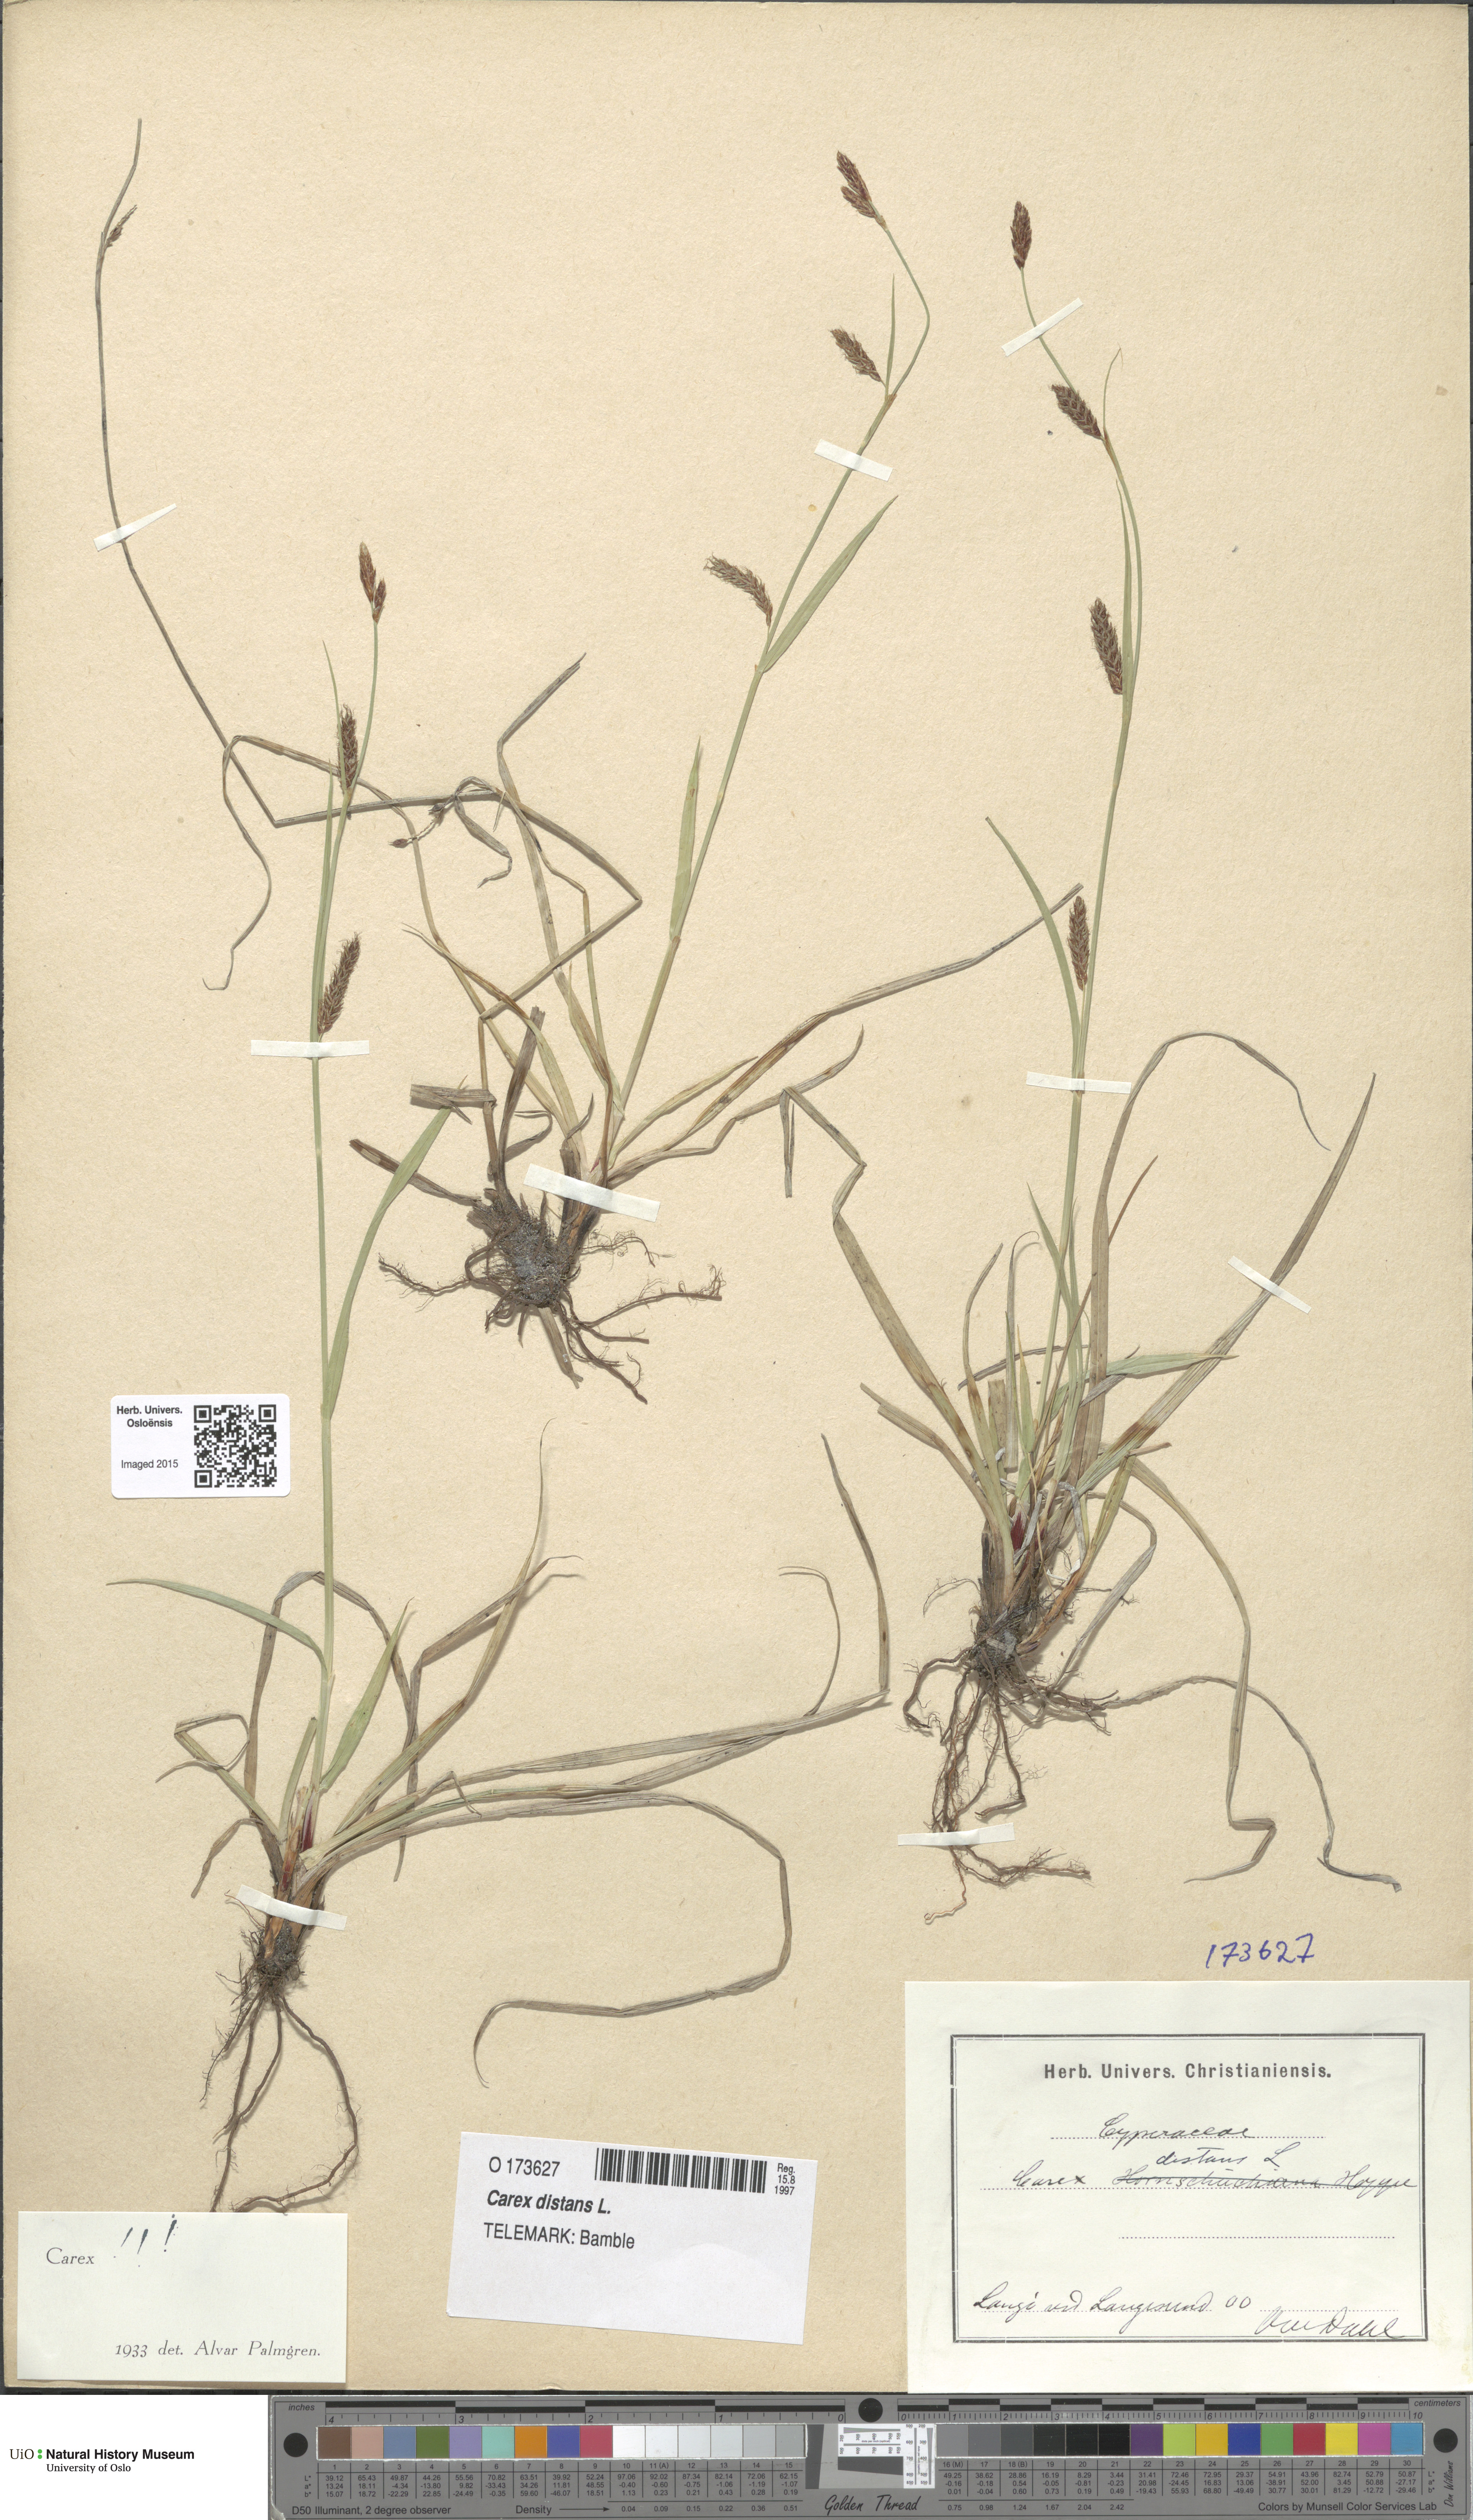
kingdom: Plantae
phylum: Tracheophyta
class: Liliopsida
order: Poales
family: Cyperaceae
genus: Carex
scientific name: Carex distans
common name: Distant sedge
